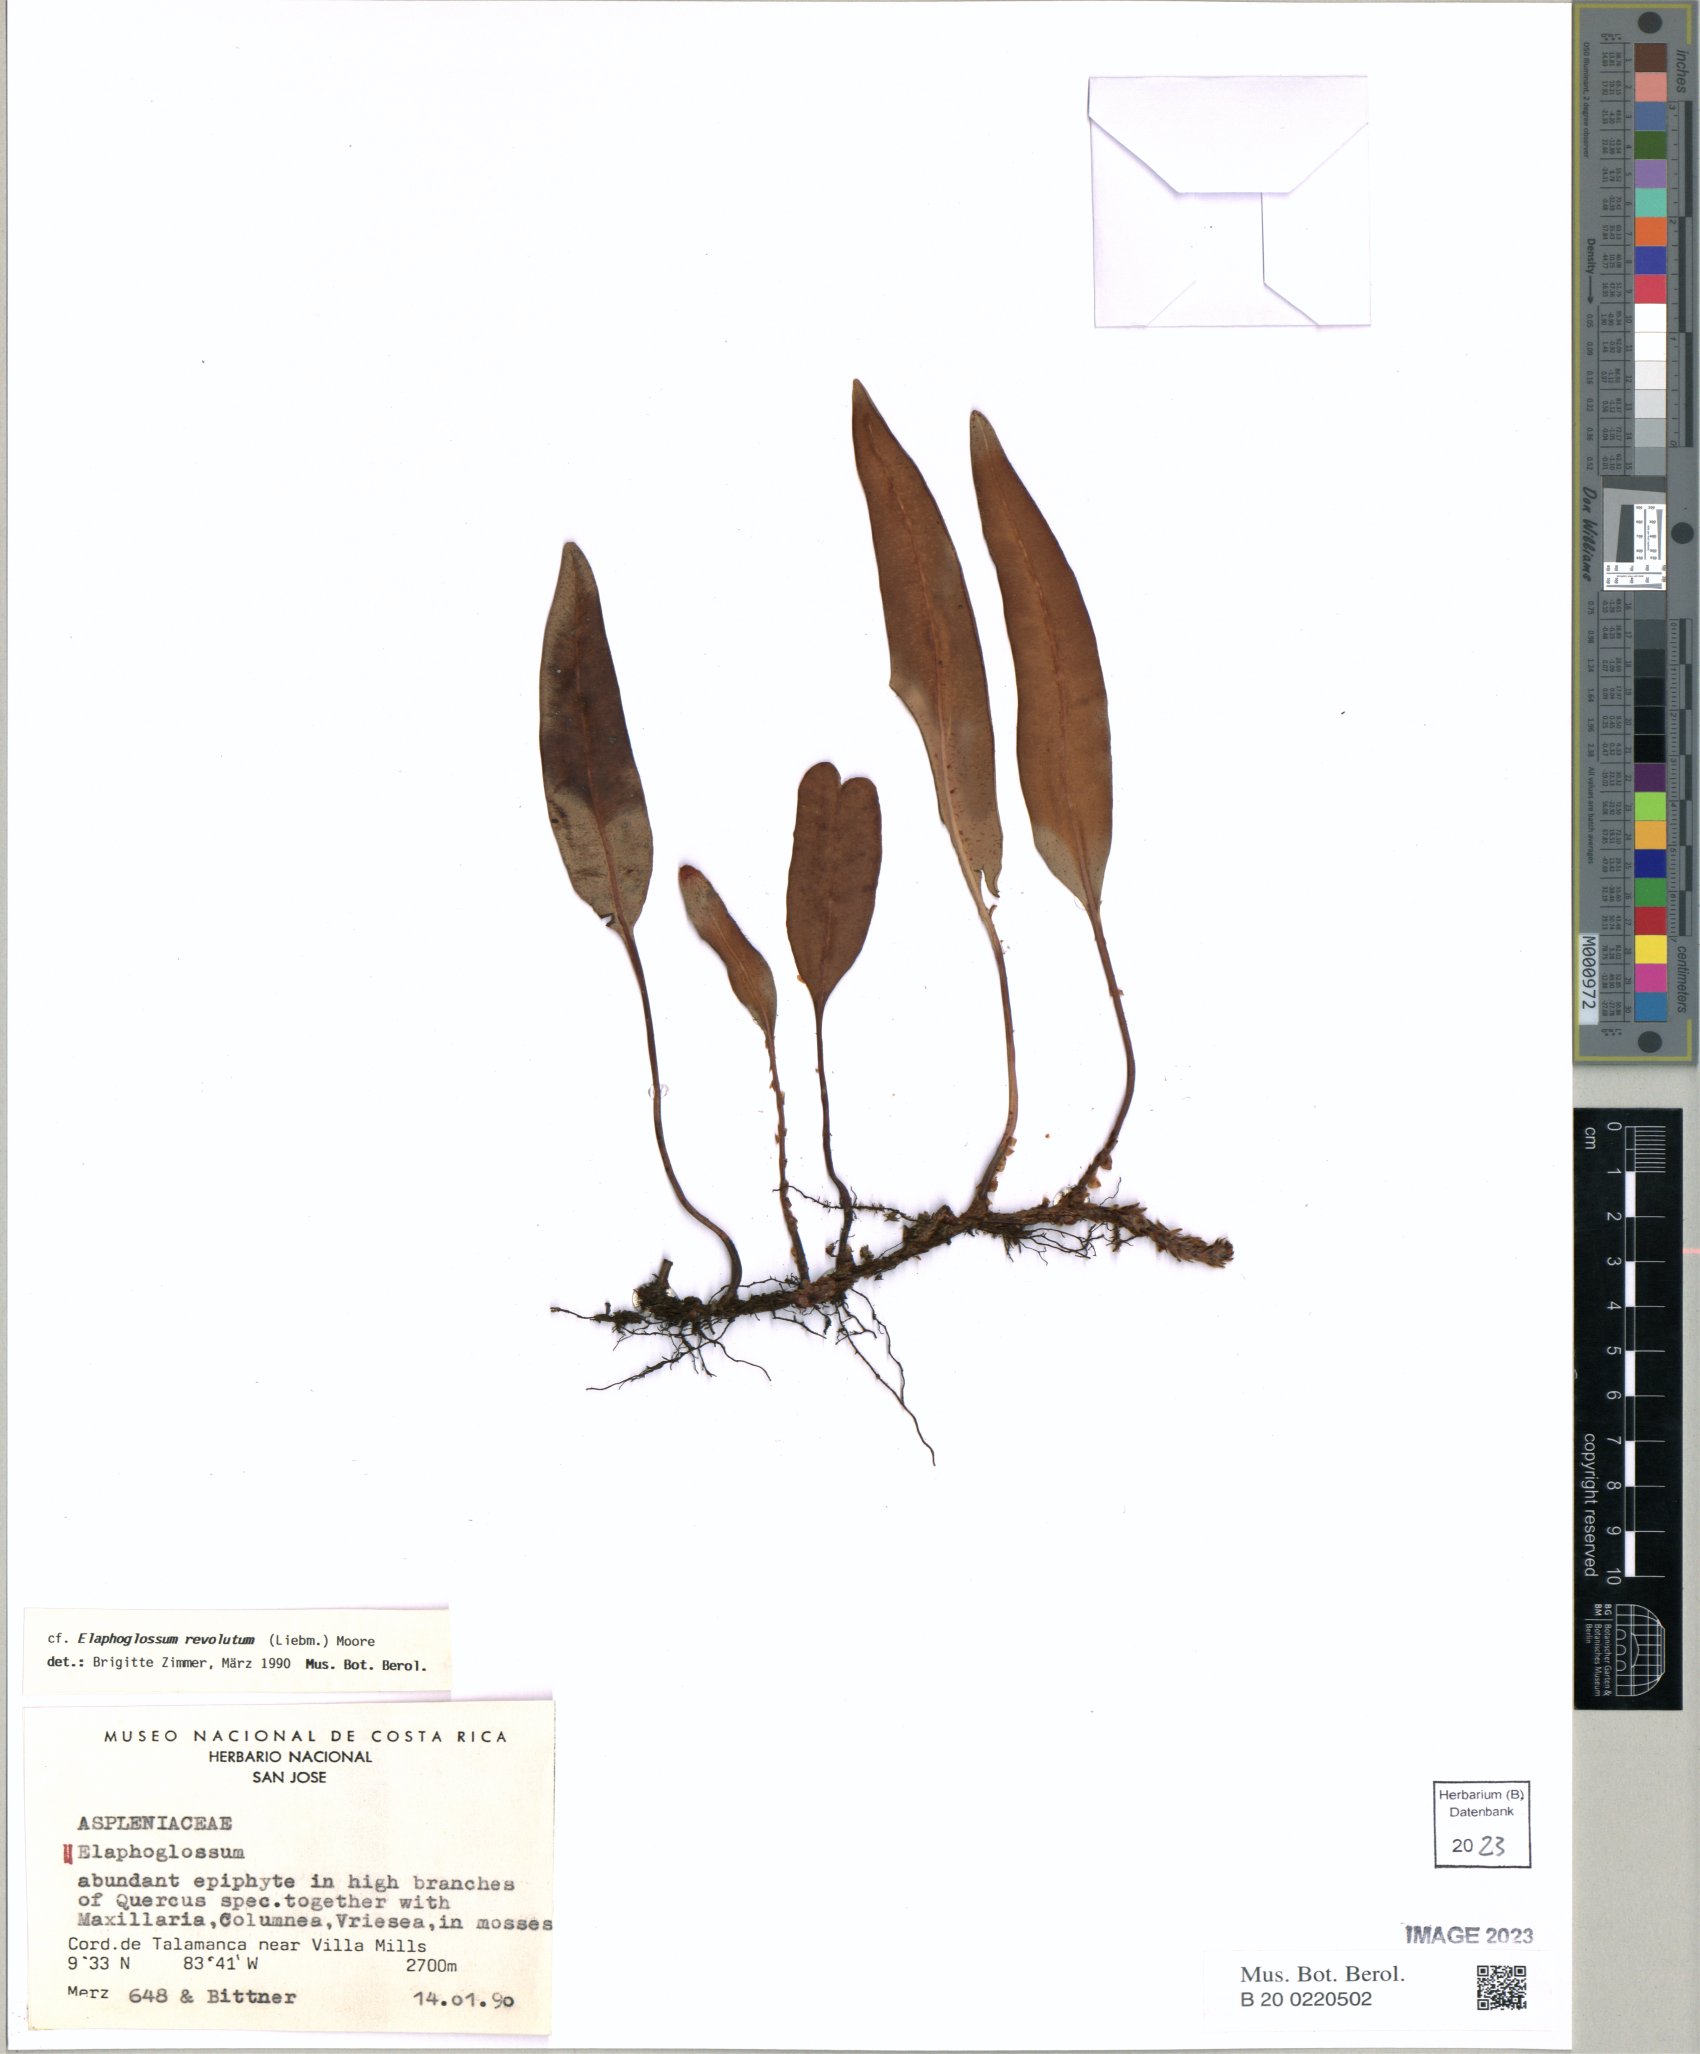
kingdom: Plantae
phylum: Tracheophyta
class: Polypodiopsida
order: Polypodiales
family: Dryopteridaceae
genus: Elaphoglossum
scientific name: Elaphoglossum
